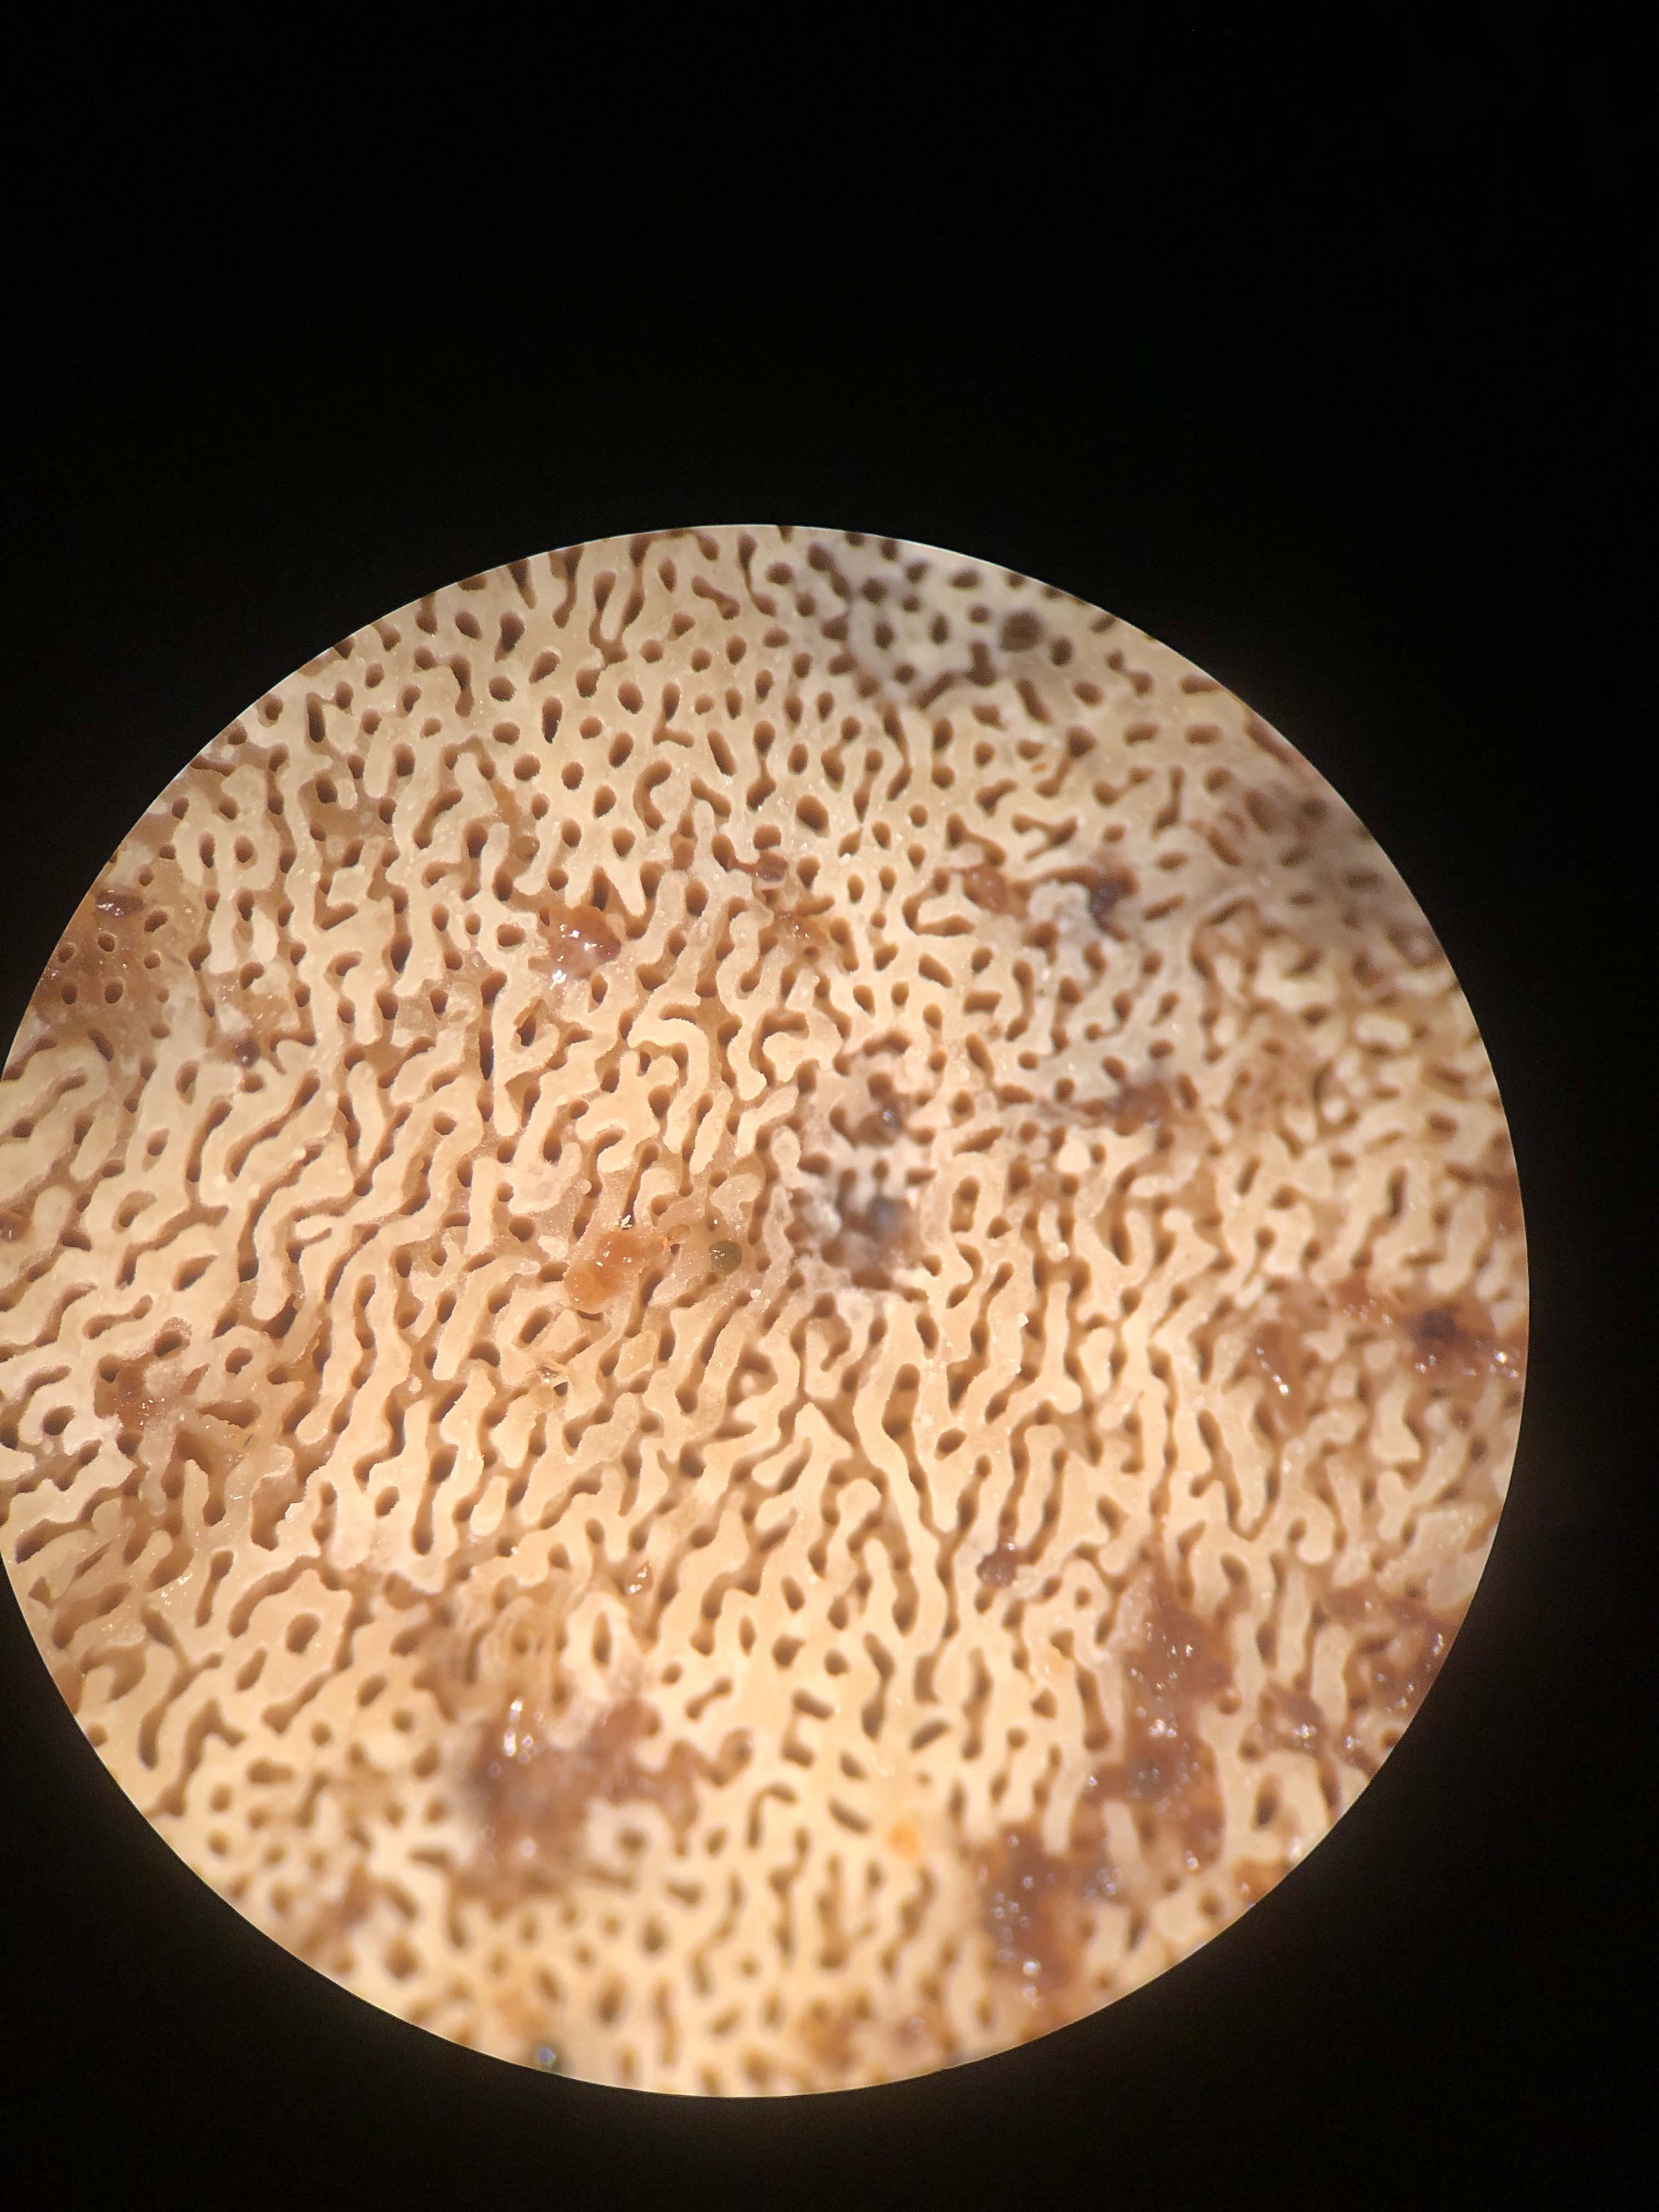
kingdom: Fungi
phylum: Basidiomycota
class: Agaricomycetes
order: Polyporales
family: Phanerochaetaceae
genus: Bjerkandera
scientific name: Bjerkandera fumosa
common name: grågul sodporesvamp
